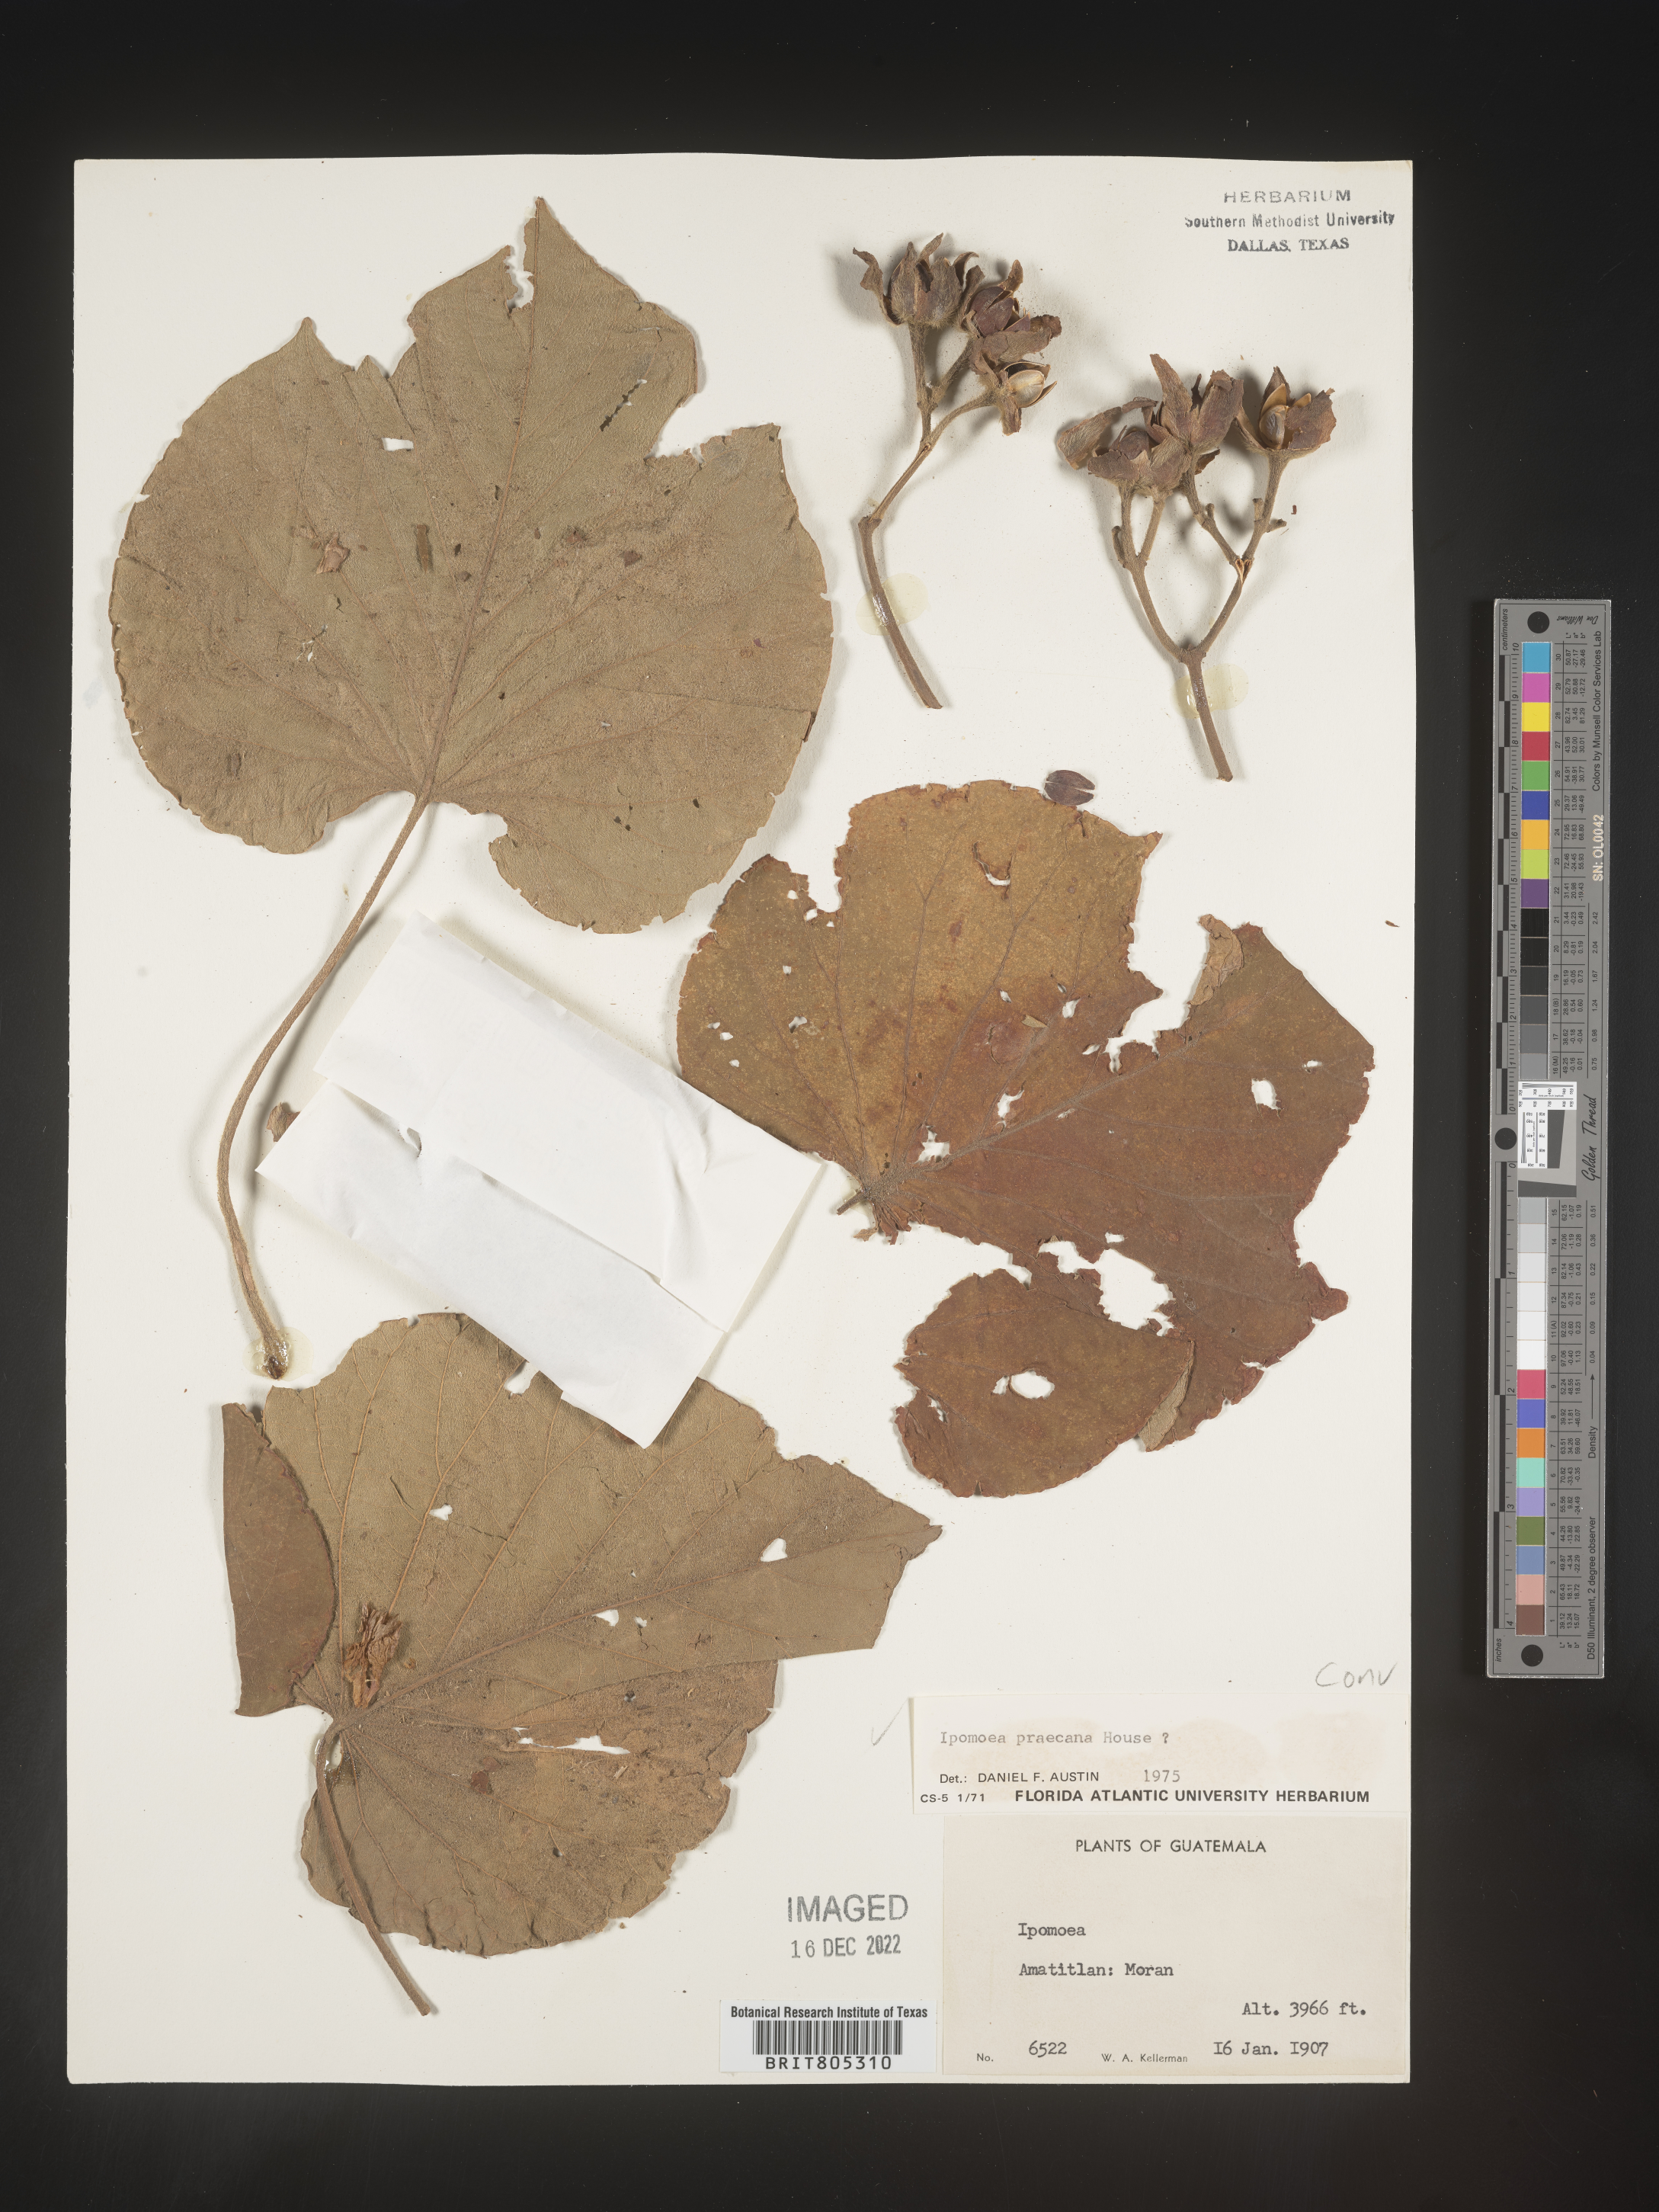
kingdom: Plantae
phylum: Tracheophyta
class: Magnoliopsida
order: Solanales
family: Convolvulaceae
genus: Ipomoea
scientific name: Ipomoea
